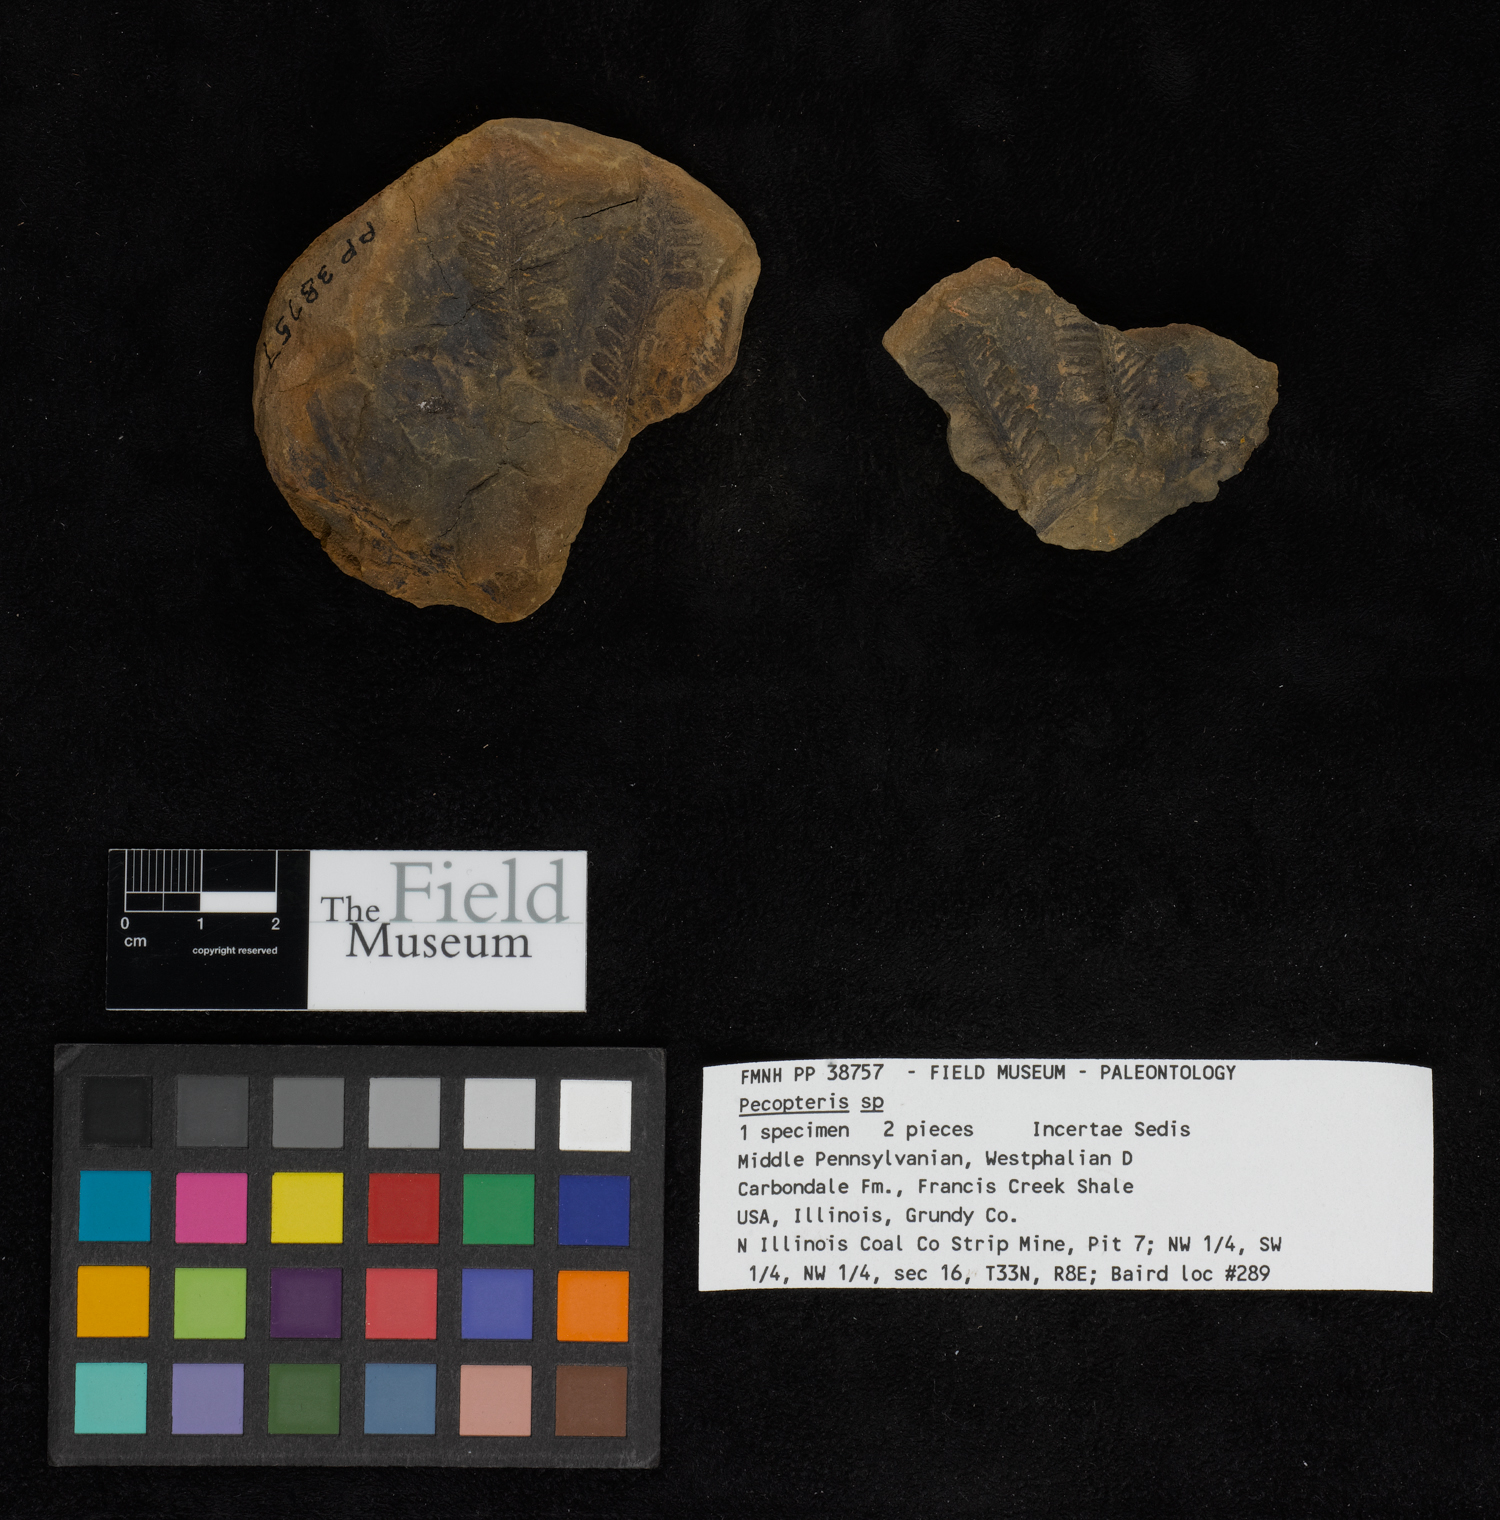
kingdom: Plantae
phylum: Tracheophyta
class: Polypodiopsida
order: Marattiales
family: Asterothecaceae
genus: Pecopteris
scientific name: Pecopteris
